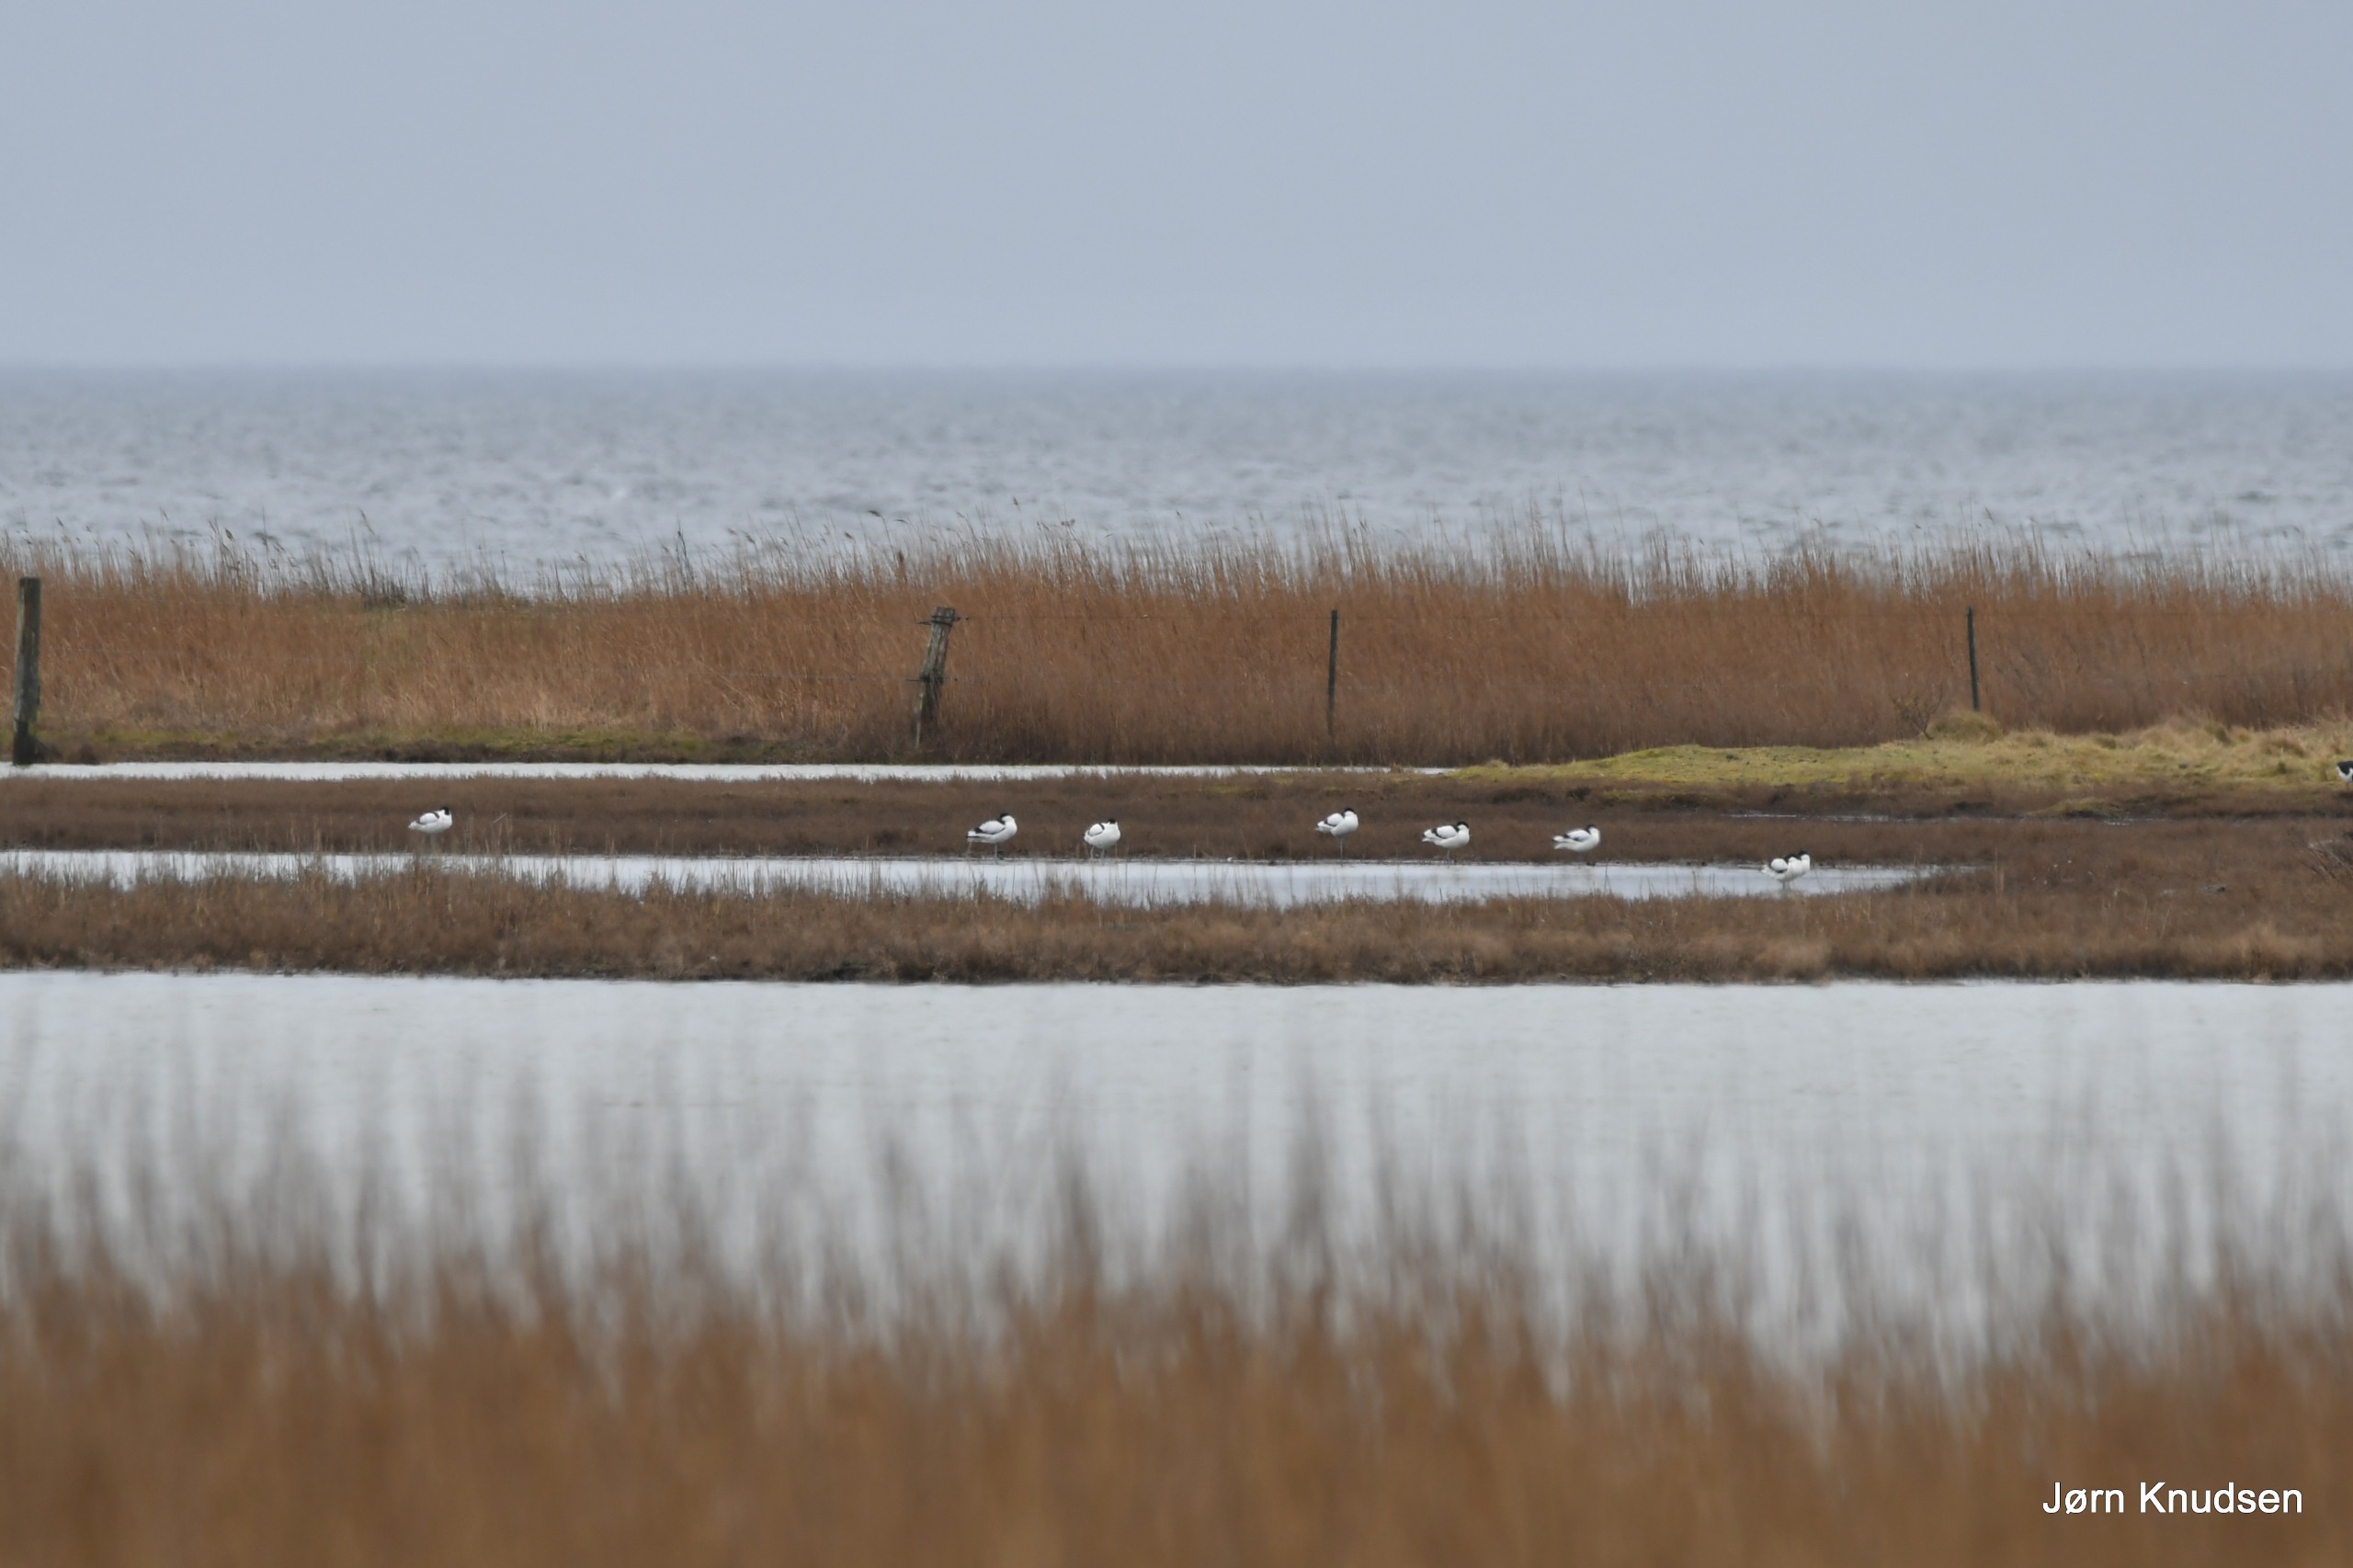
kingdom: Animalia
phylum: Chordata
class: Aves
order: Charadriiformes
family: Recurvirostridae
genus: Recurvirostra
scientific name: Recurvirostra avosetta
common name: Klyde
